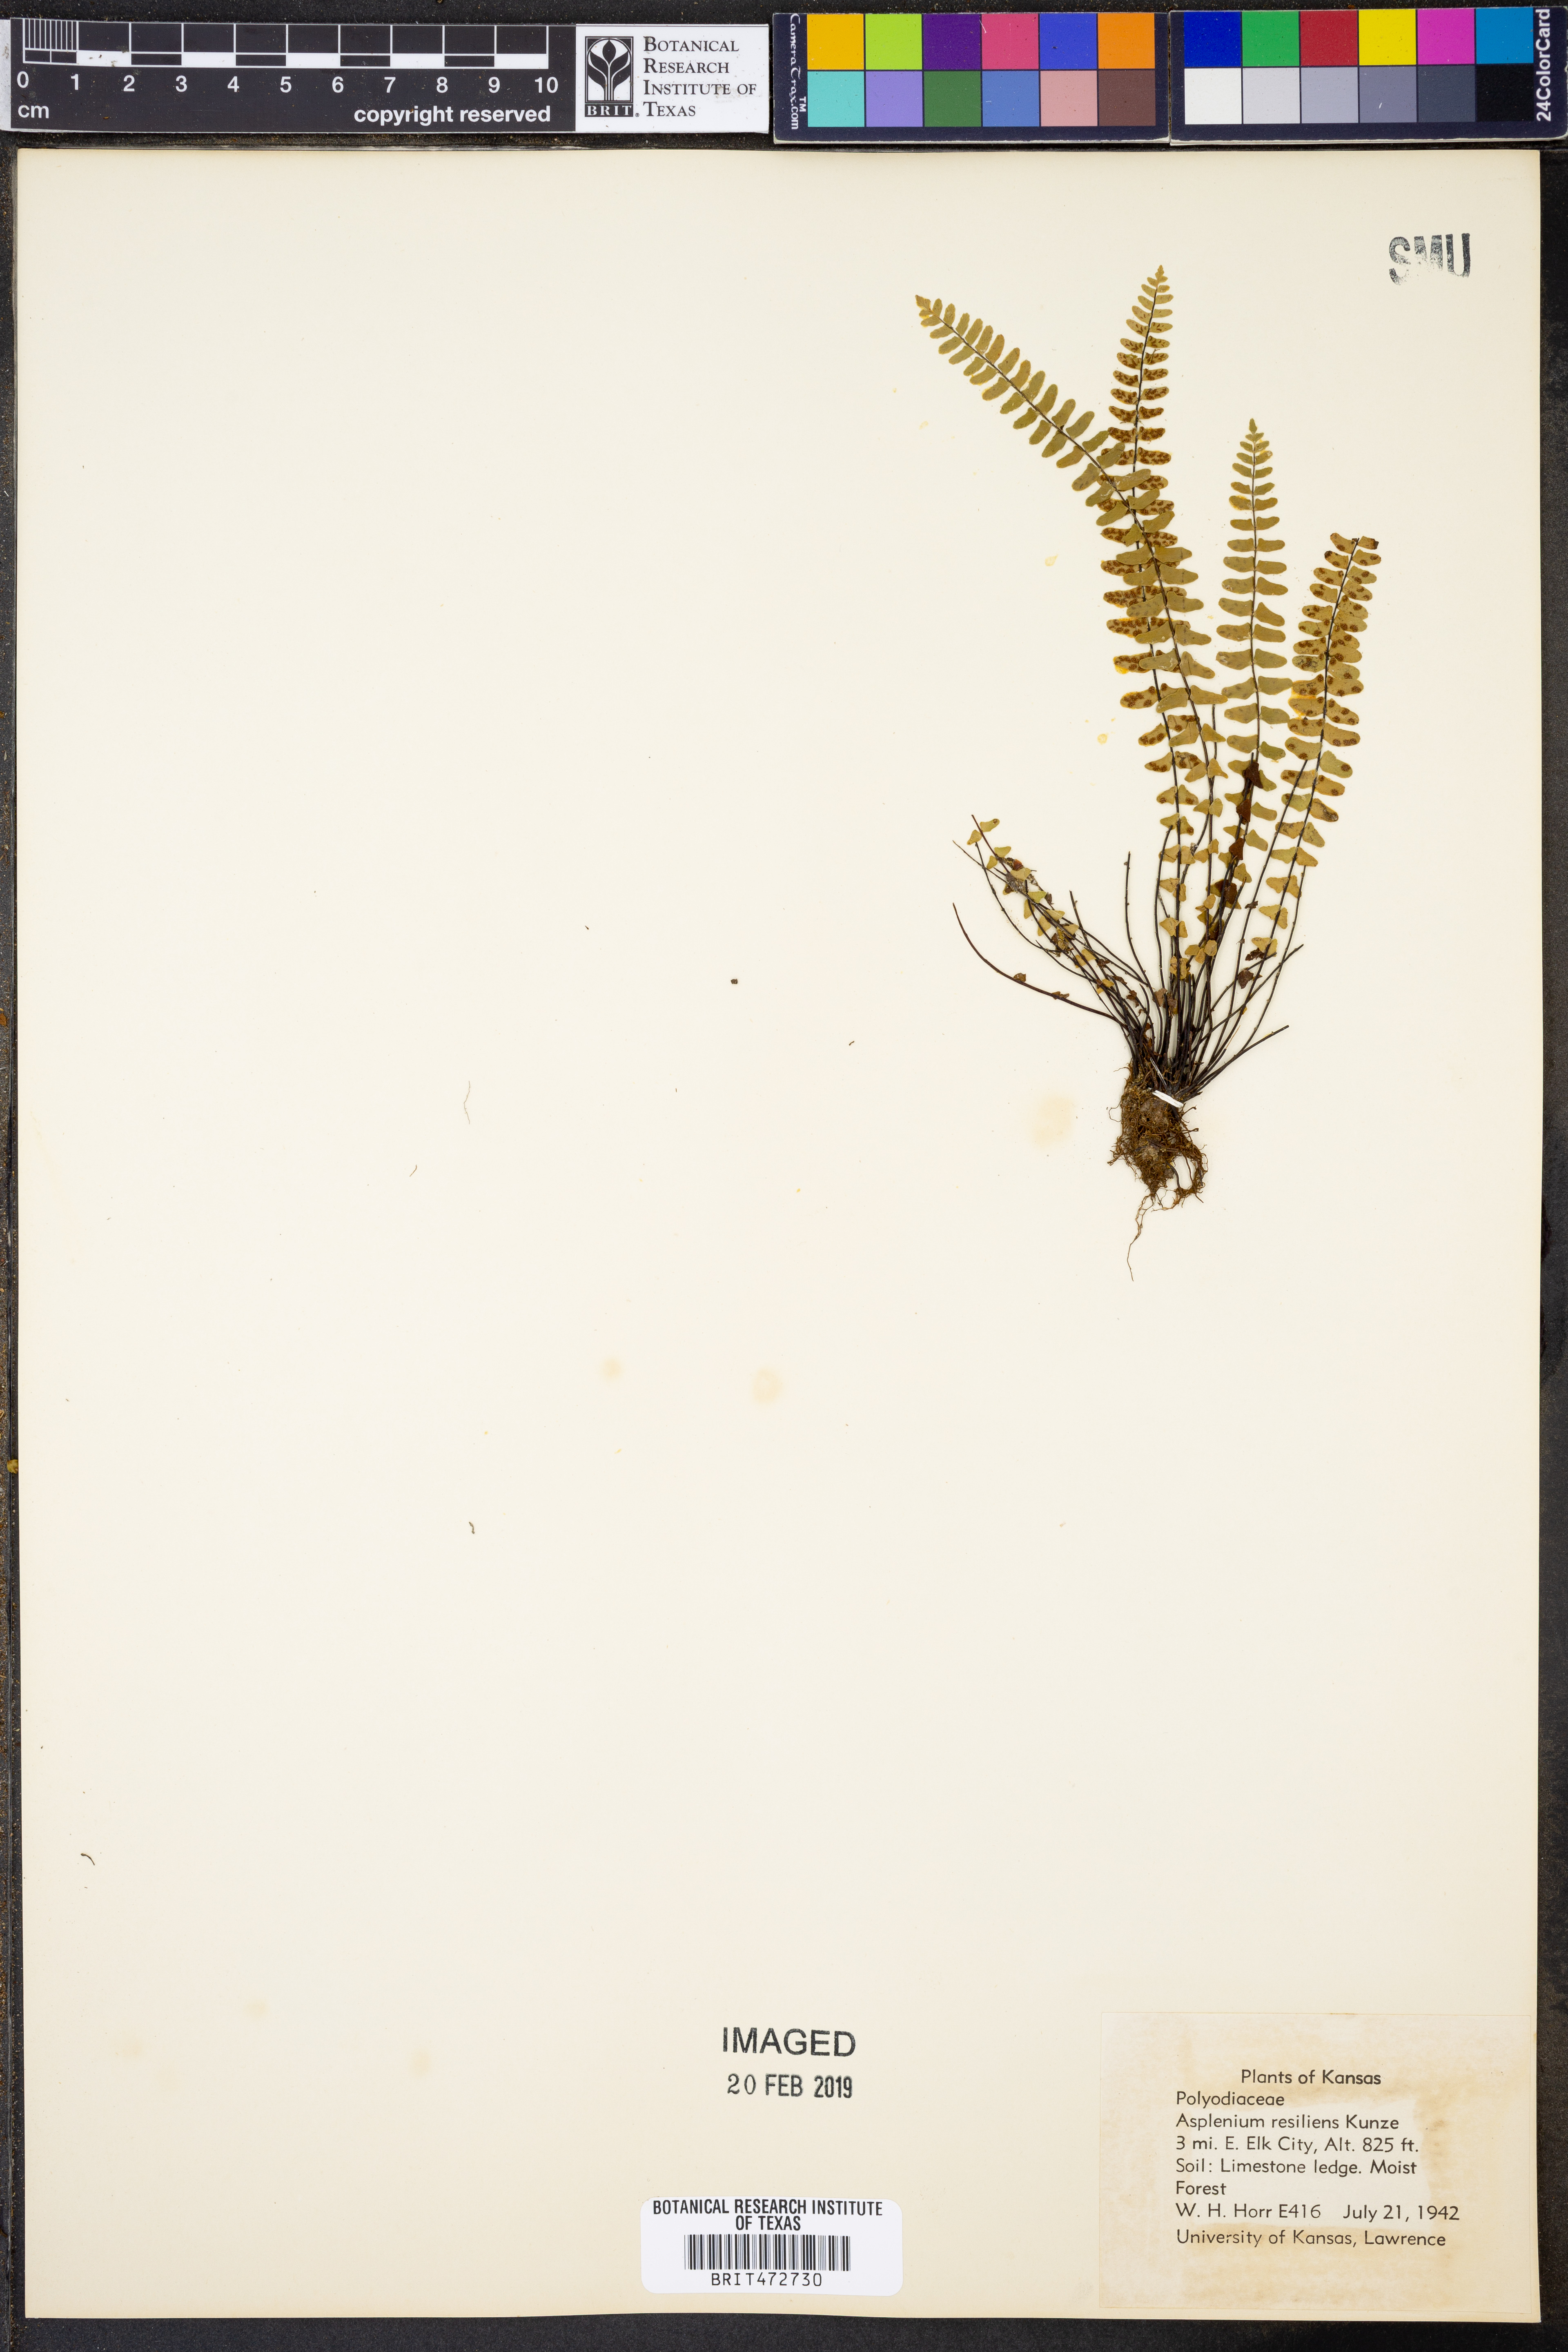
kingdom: Plantae
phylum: Tracheophyta
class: Polypodiopsida
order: Polypodiales
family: Aspleniaceae
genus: Asplenium
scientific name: Asplenium resiliens
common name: Blackstem spleenwort
